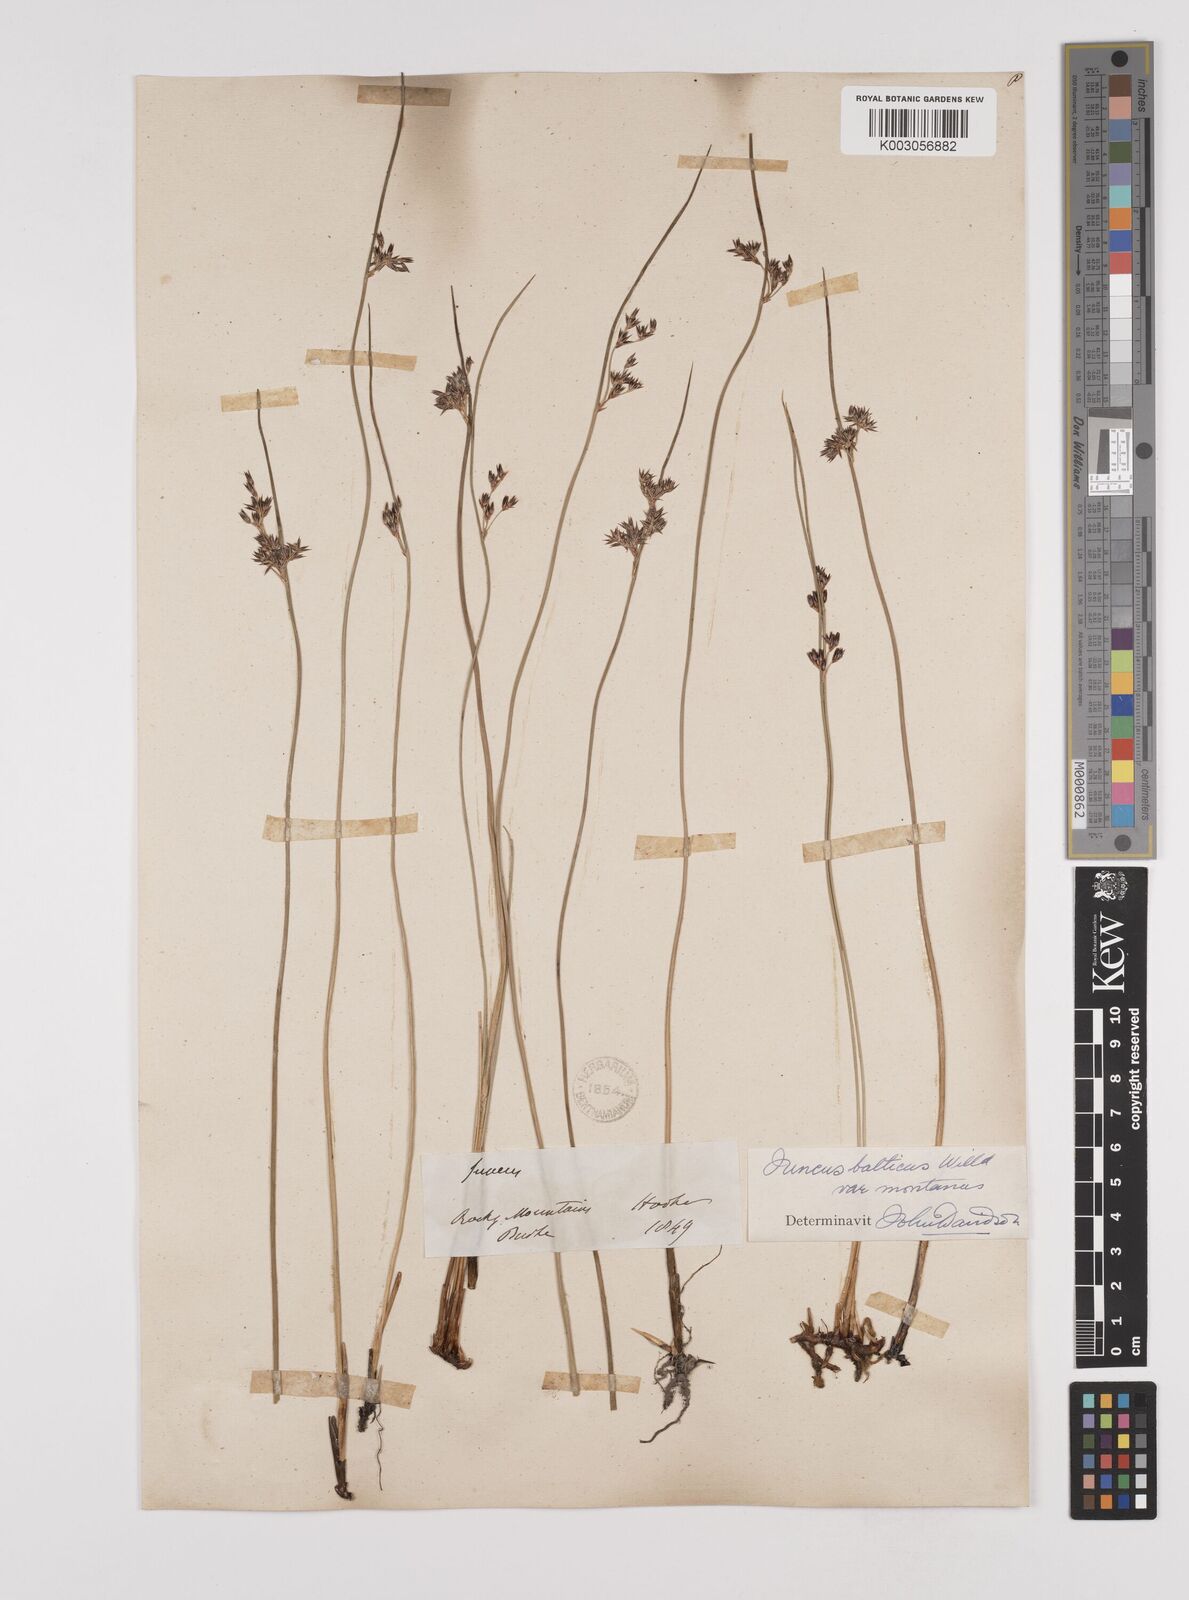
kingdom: Plantae
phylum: Tracheophyta
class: Liliopsida
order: Poales
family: Juncaceae
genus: Juncus
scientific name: Juncus
